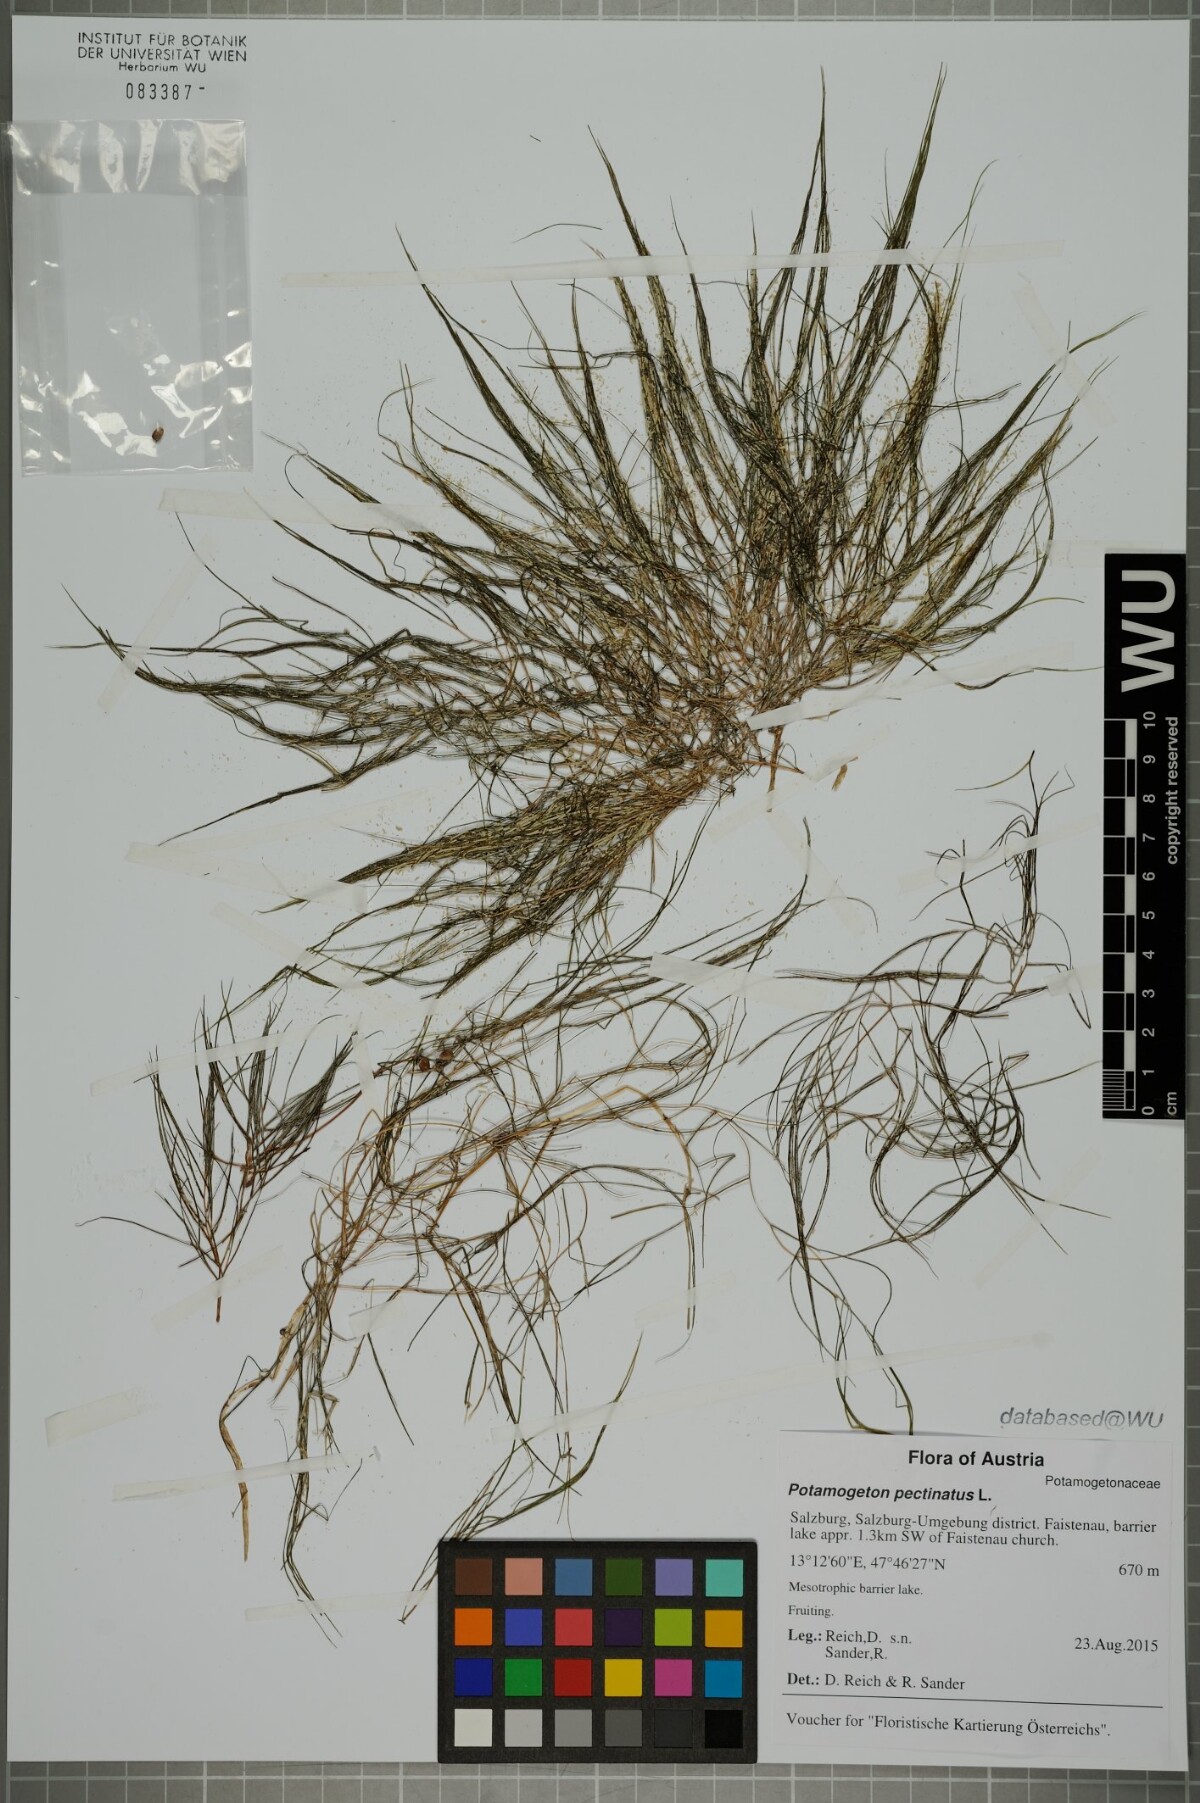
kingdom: Plantae
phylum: Tracheophyta
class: Liliopsida
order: Alismatales
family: Potamogetonaceae
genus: Stuckenia
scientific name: Stuckenia pectinata
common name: Sago pondweed
